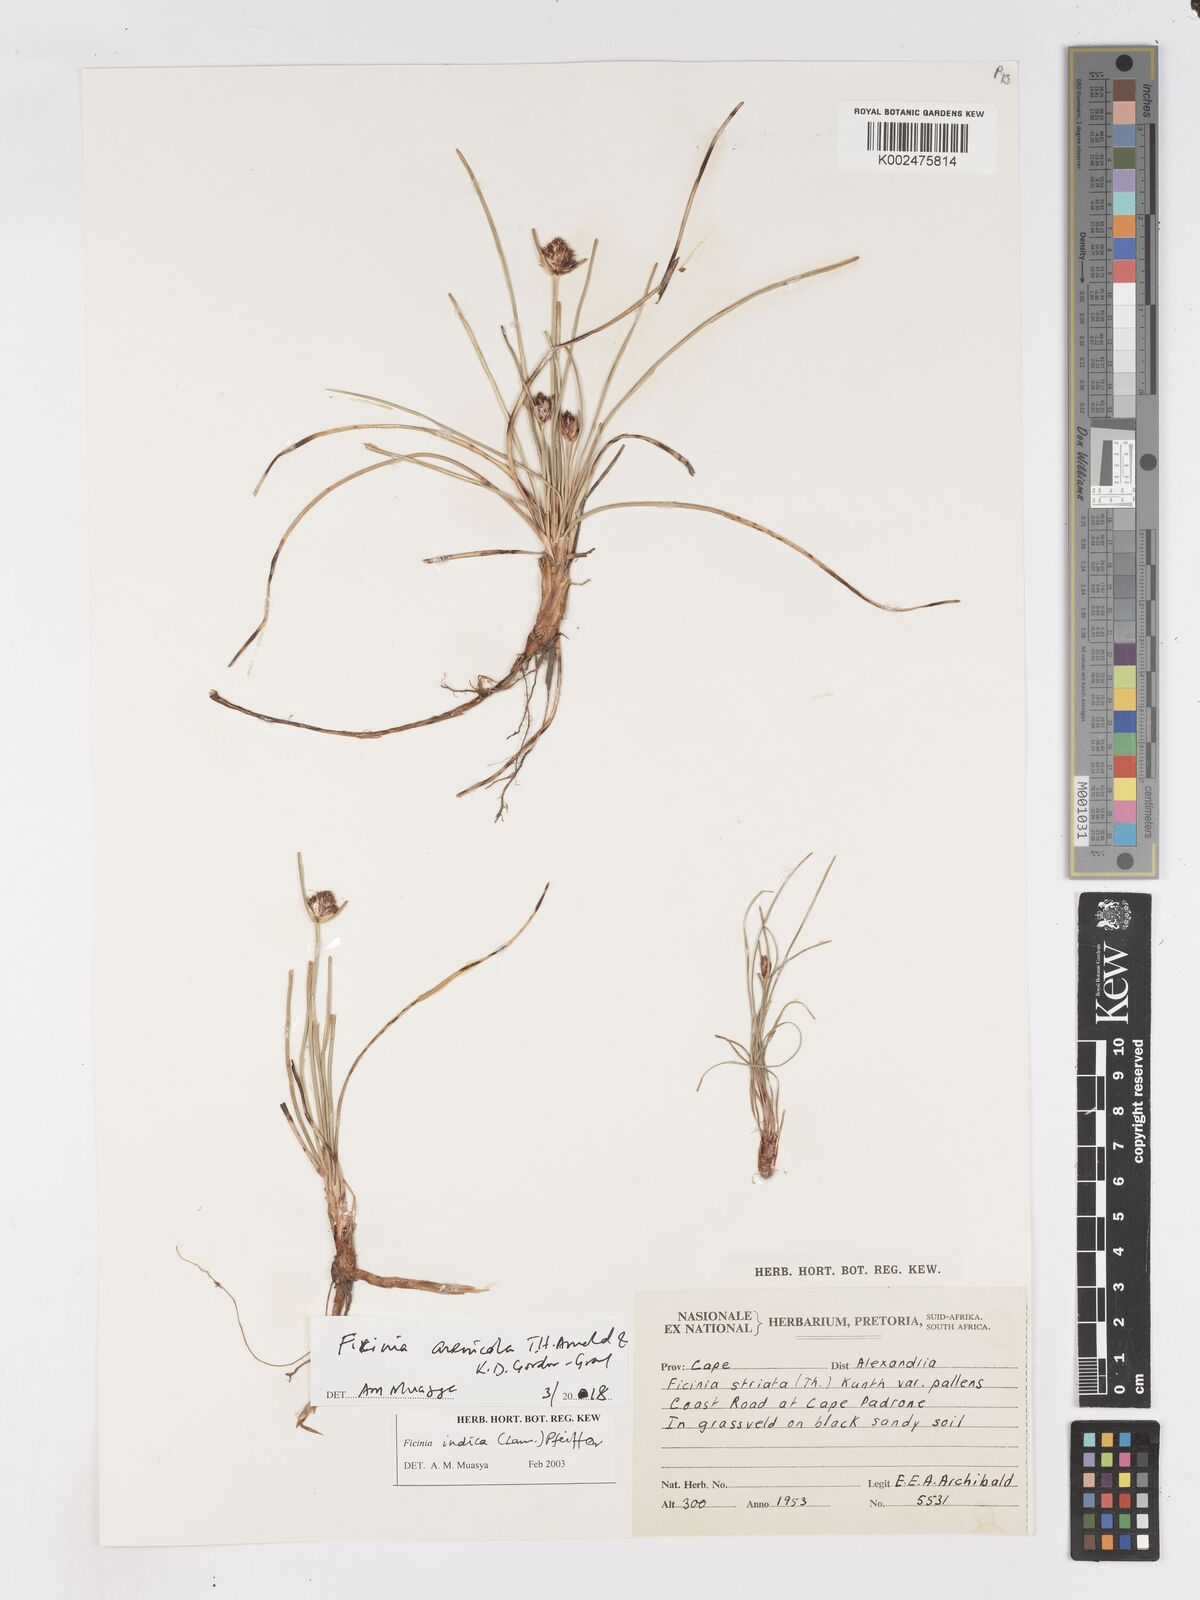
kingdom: Plantae
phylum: Tracheophyta
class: Liliopsida
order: Poales
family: Cyperaceae
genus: Ficinia
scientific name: Ficinia arenicola
